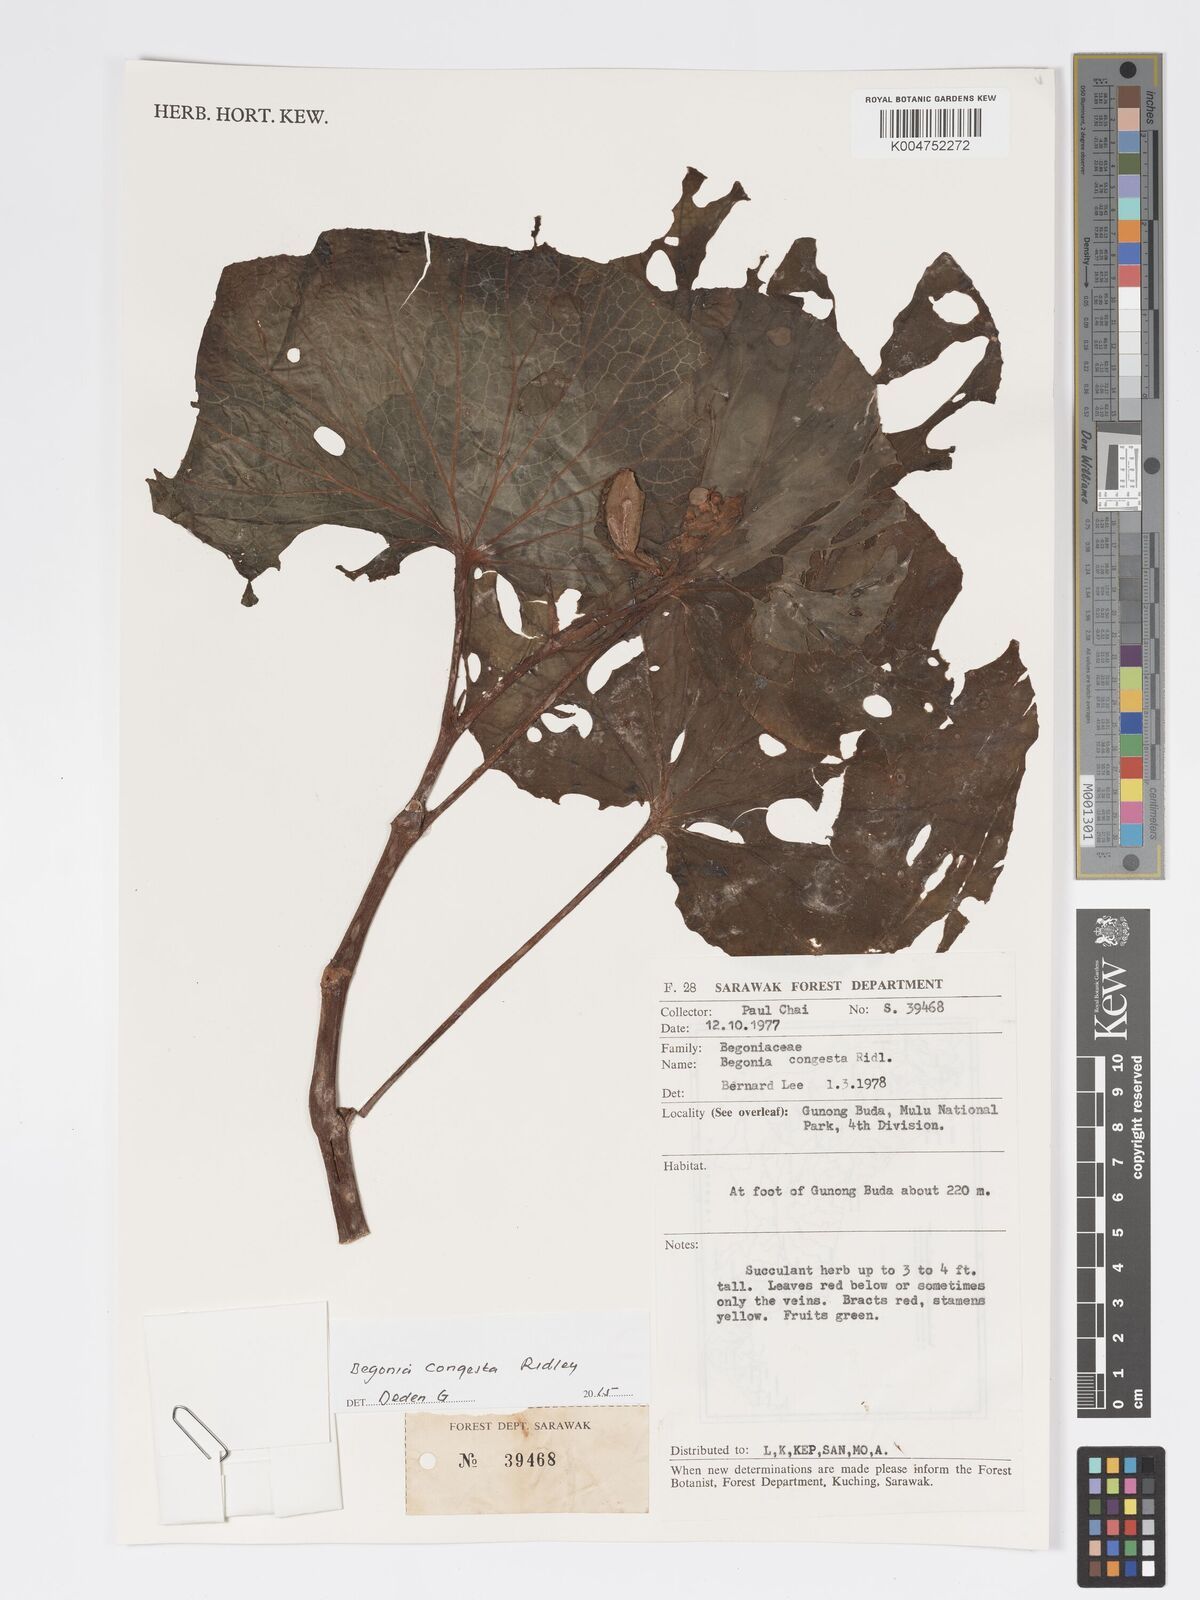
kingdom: Plantae
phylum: Tracheophyta
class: Magnoliopsida
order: Cucurbitales
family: Begoniaceae
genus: Begonia
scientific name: Begonia congesta
